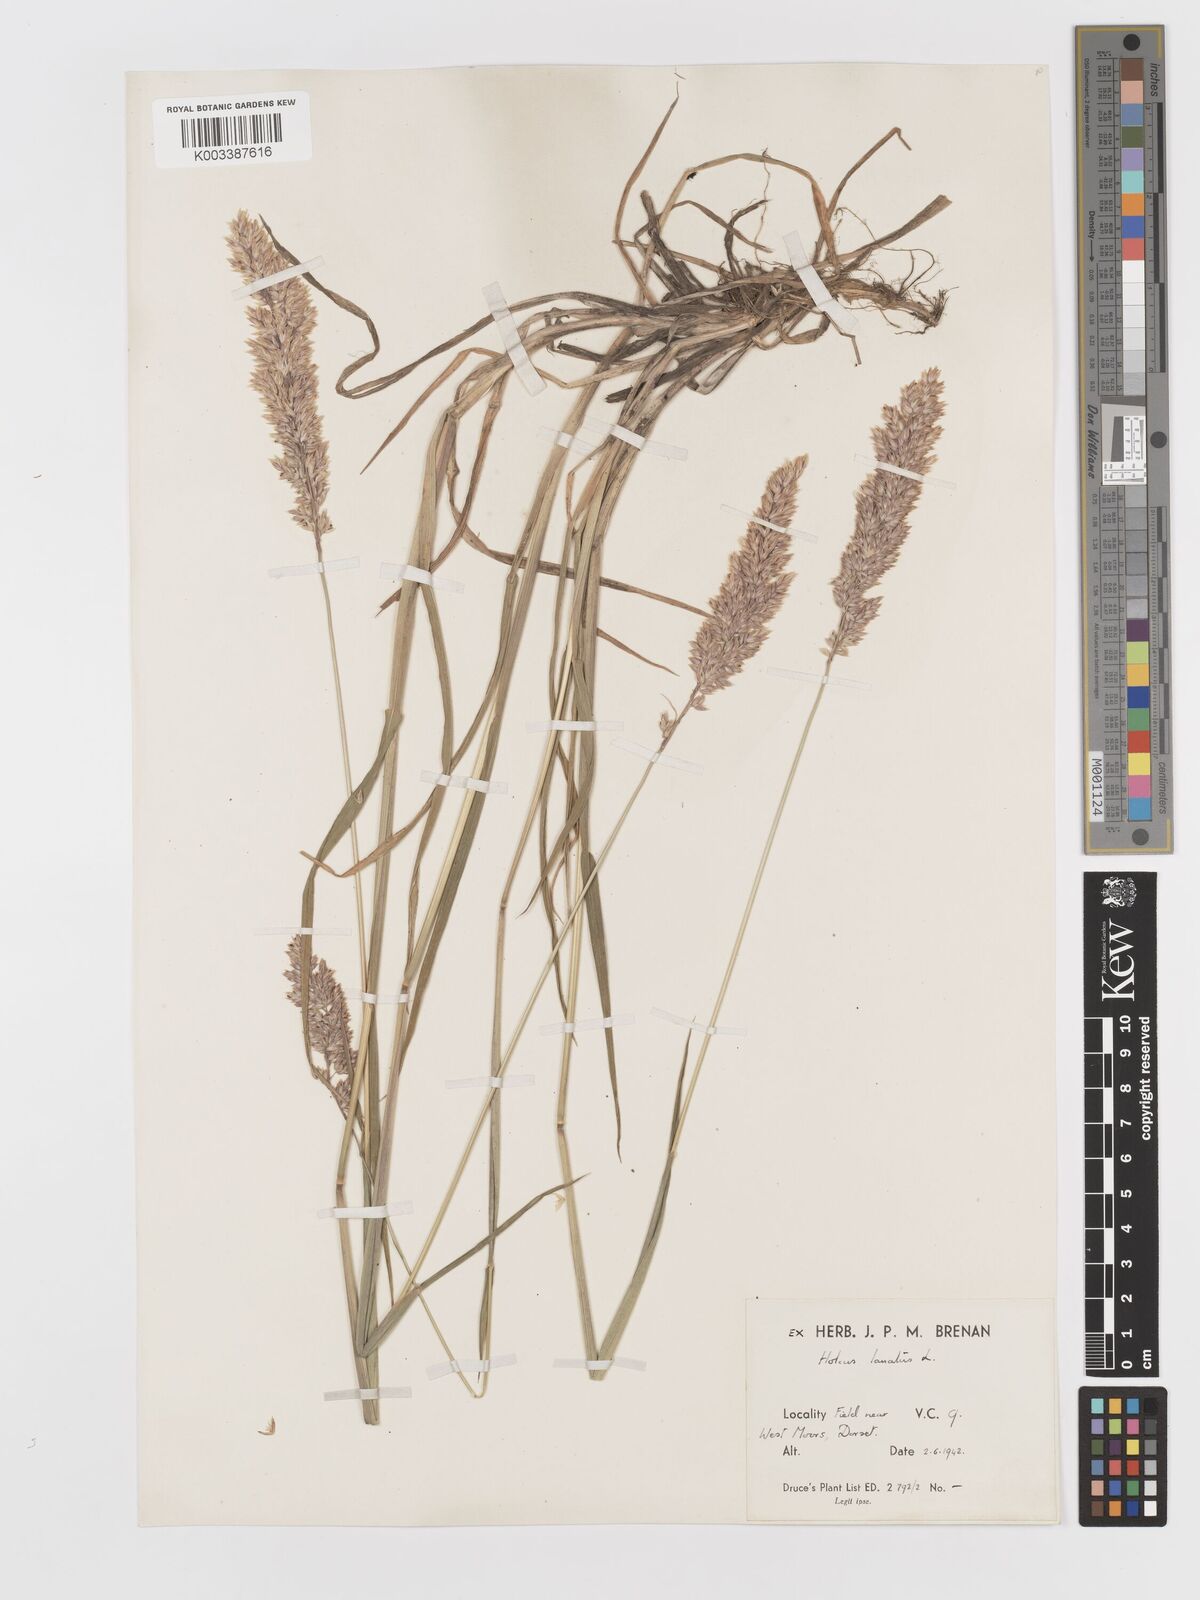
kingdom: Plantae
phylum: Tracheophyta
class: Liliopsida
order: Poales
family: Poaceae
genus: Holcus
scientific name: Holcus lanatus
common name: Yorkshire-fog
